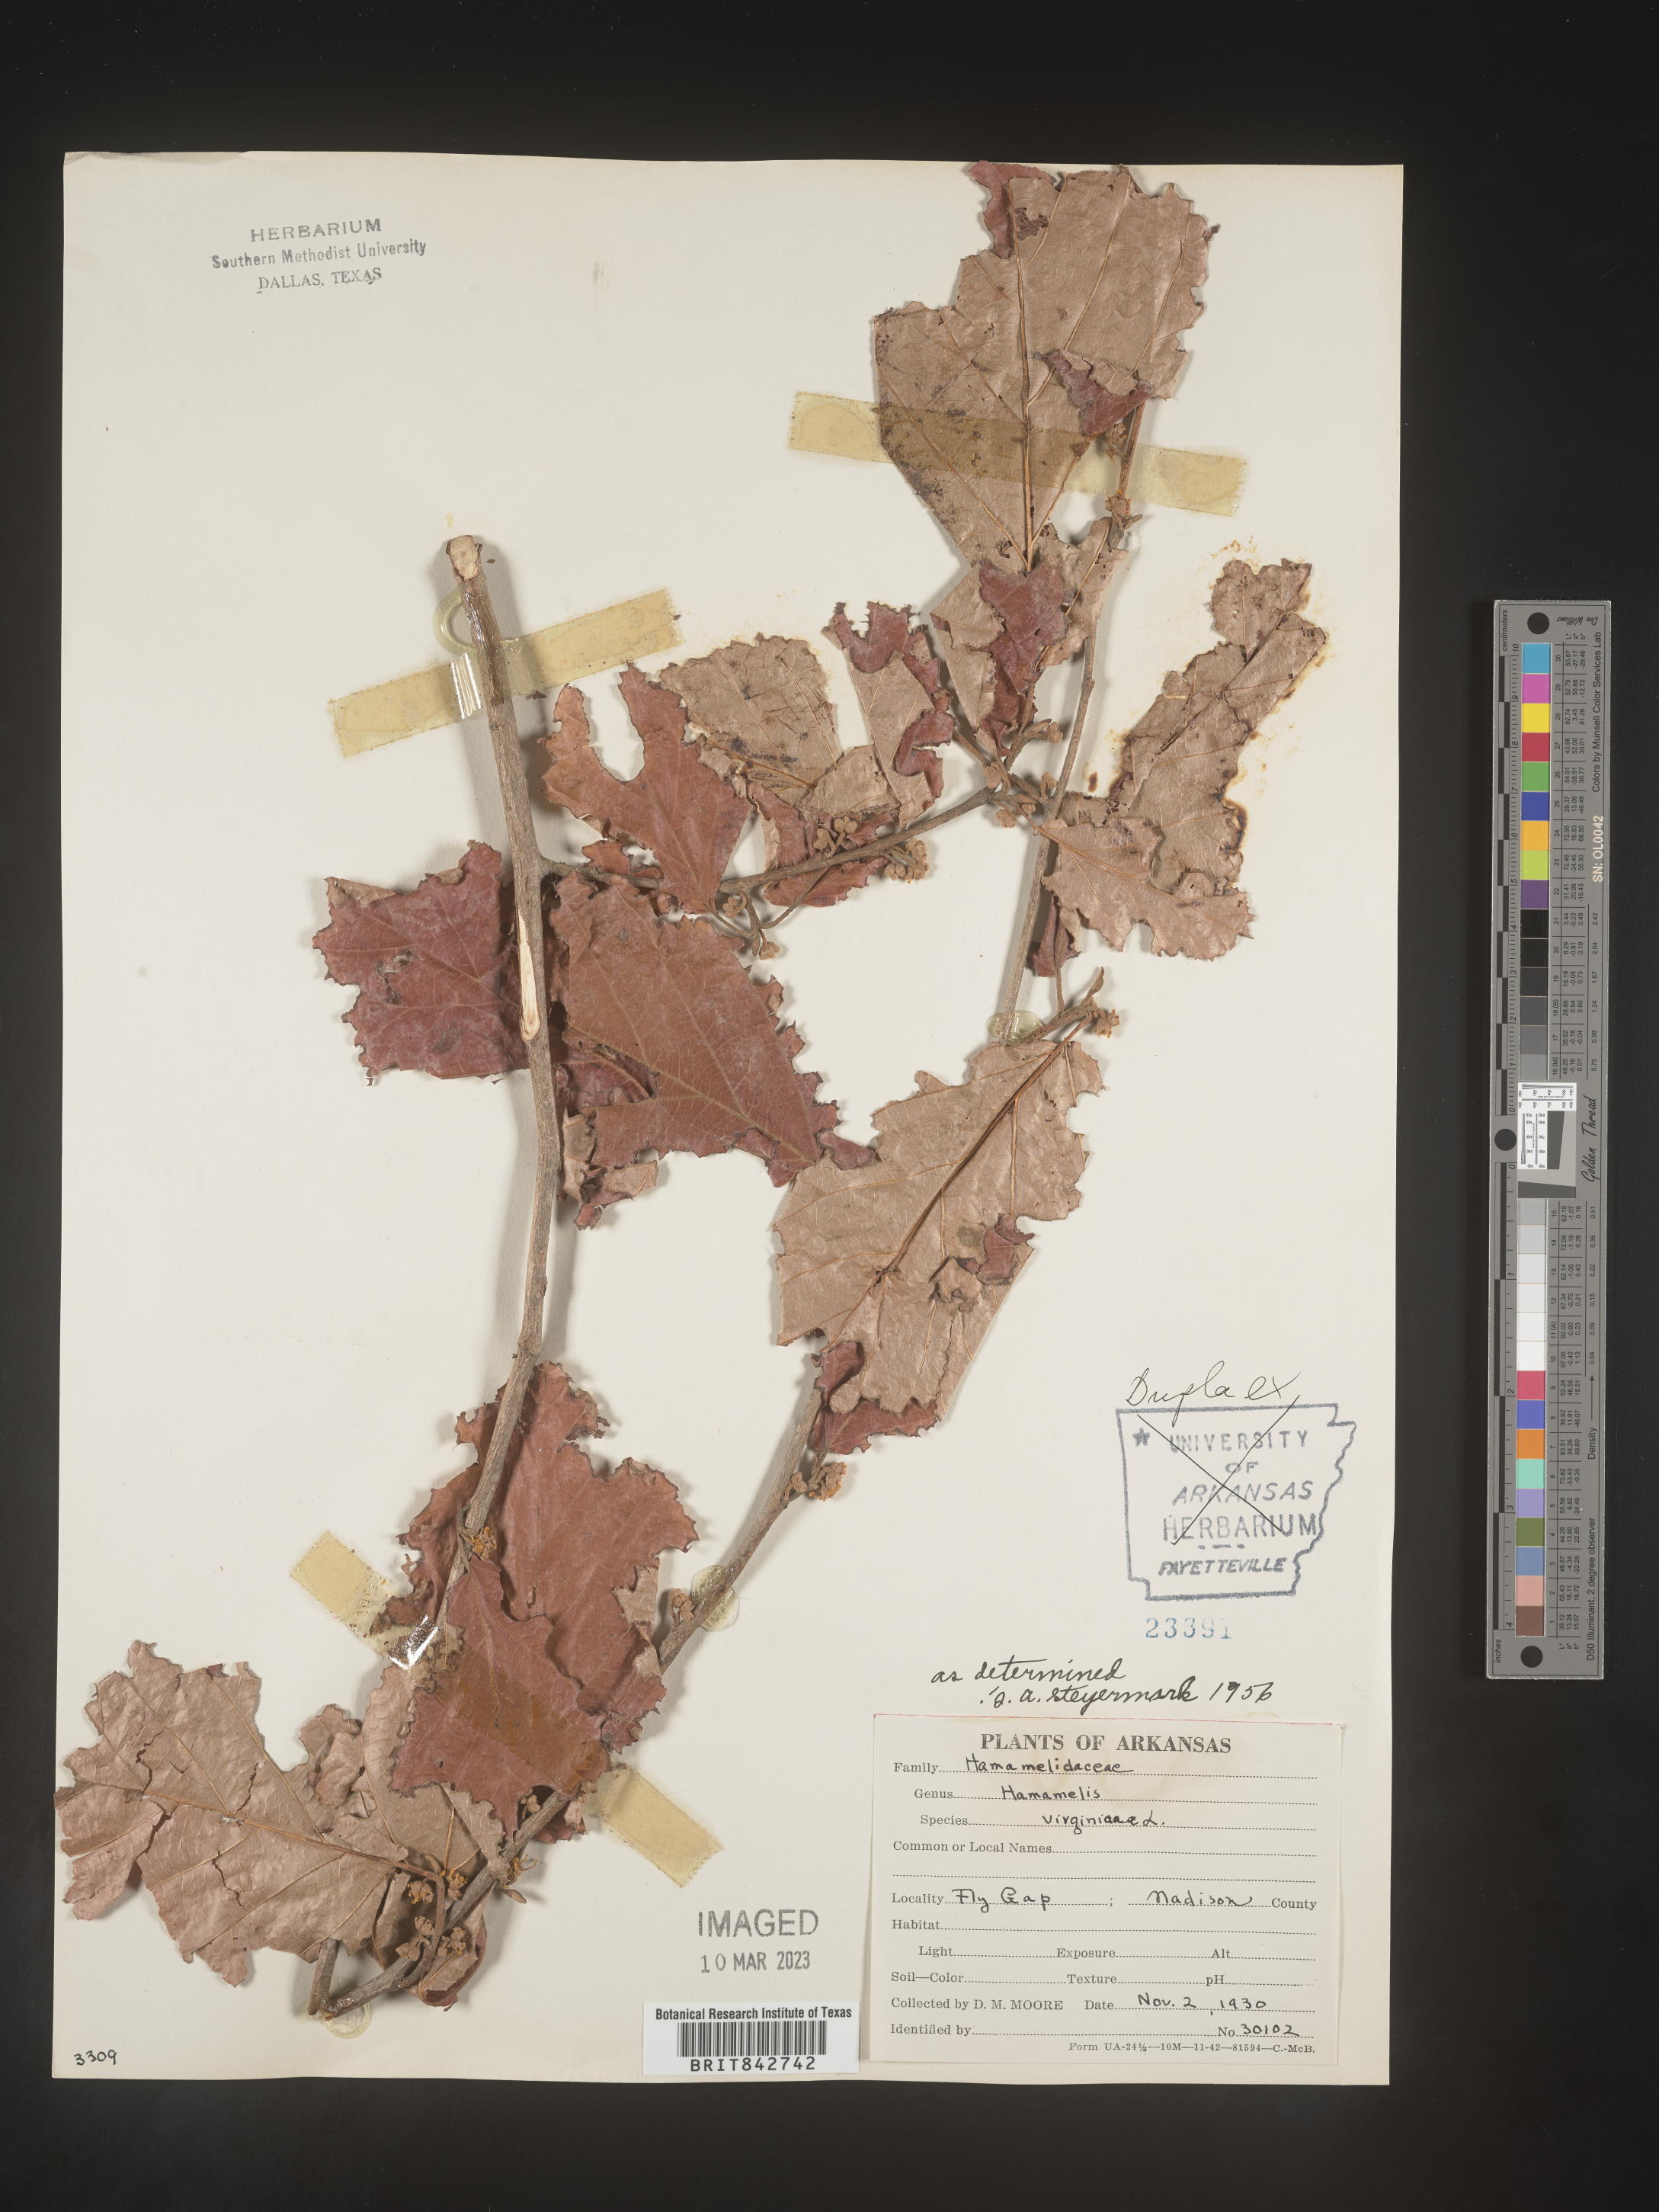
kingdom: Plantae
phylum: Tracheophyta
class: Magnoliopsida
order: Saxifragales
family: Hamamelidaceae
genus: Hamamelis
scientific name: Hamamelis virginiana
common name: Witch-hazel
